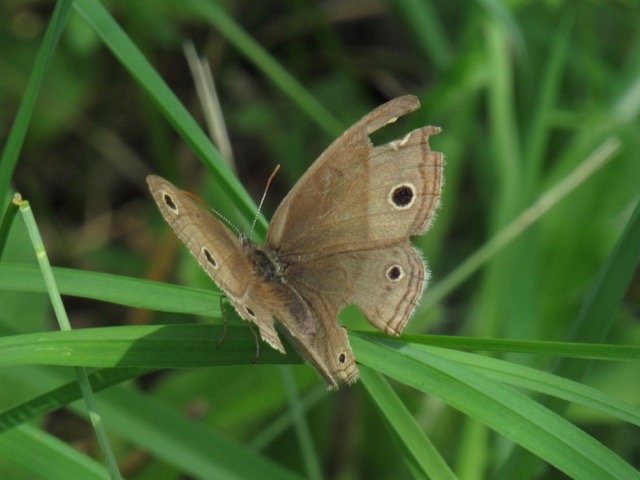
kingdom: Animalia
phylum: Arthropoda
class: Insecta
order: Lepidoptera
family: Nymphalidae
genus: Euptychia
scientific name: Euptychia cymela
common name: Little Wood Satyr
